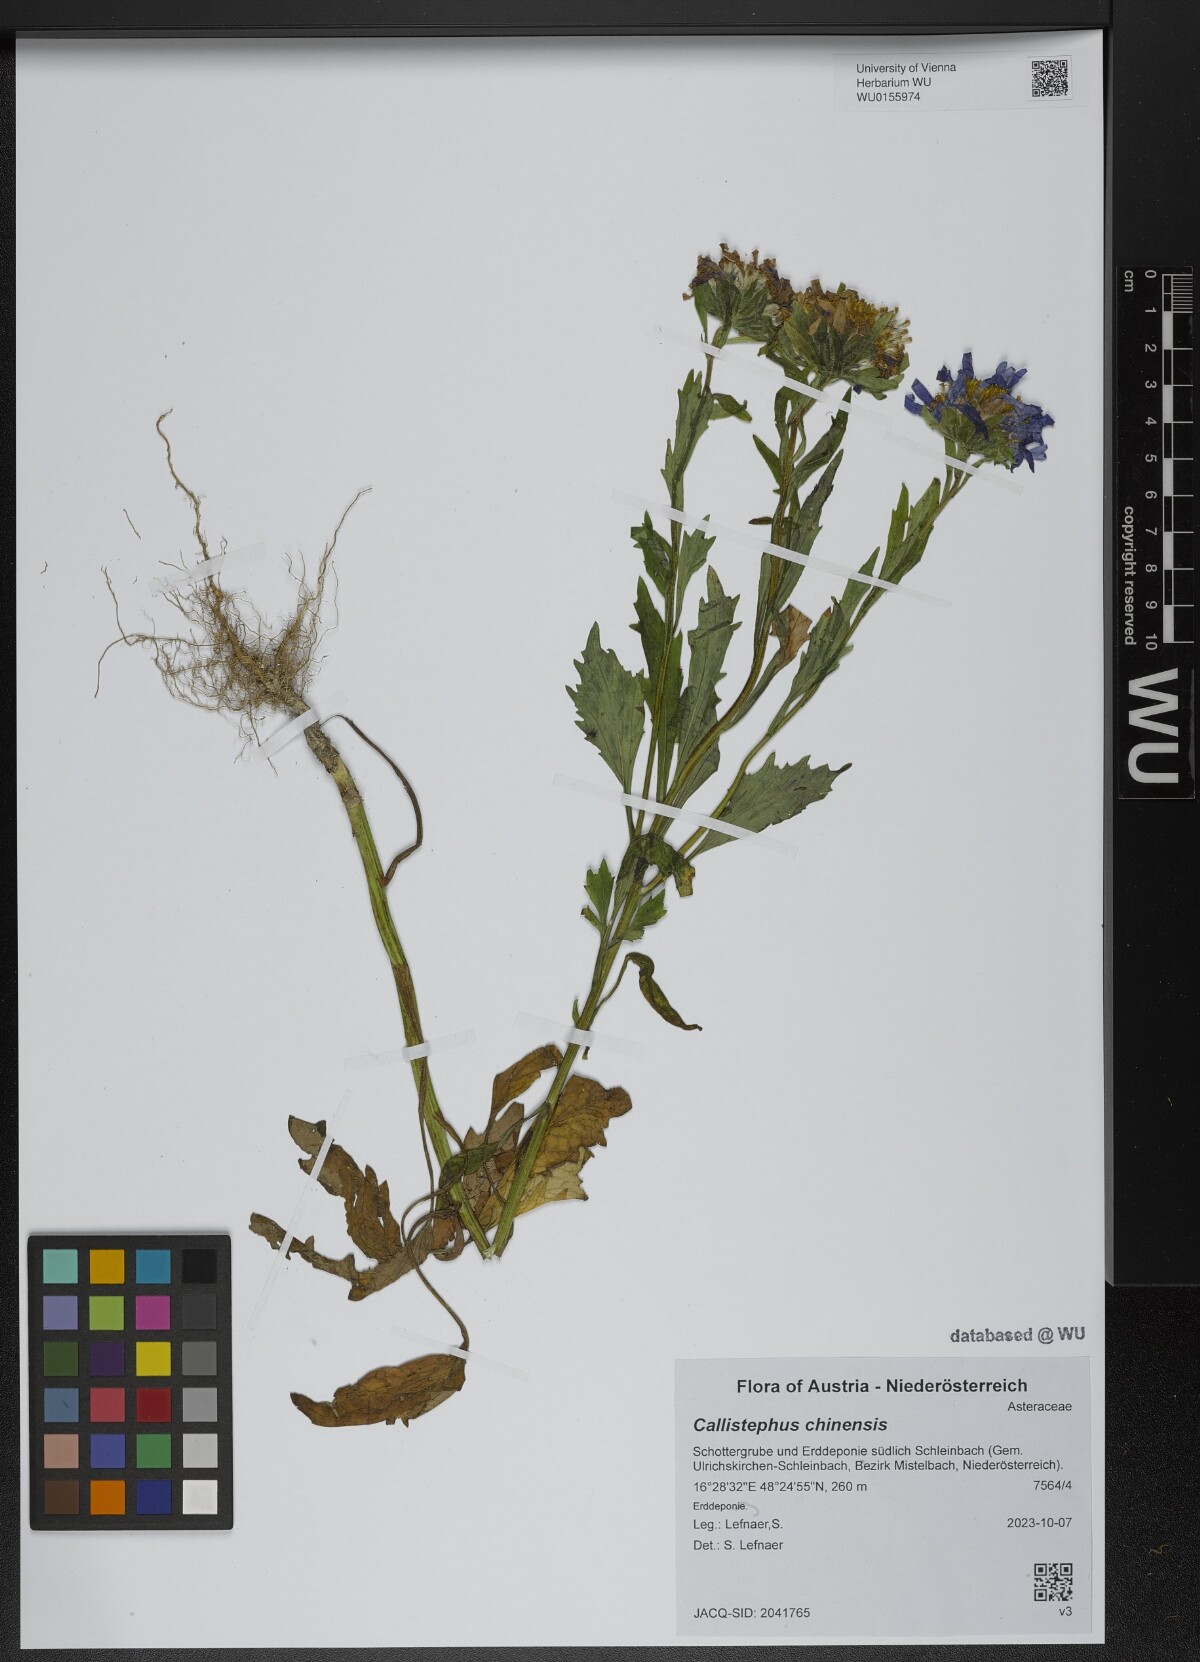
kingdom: Plantae
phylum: Tracheophyta
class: Magnoliopsida
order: Asterales
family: Asteraceae
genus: Callistephus
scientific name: Callistephus chinensis
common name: China aster
